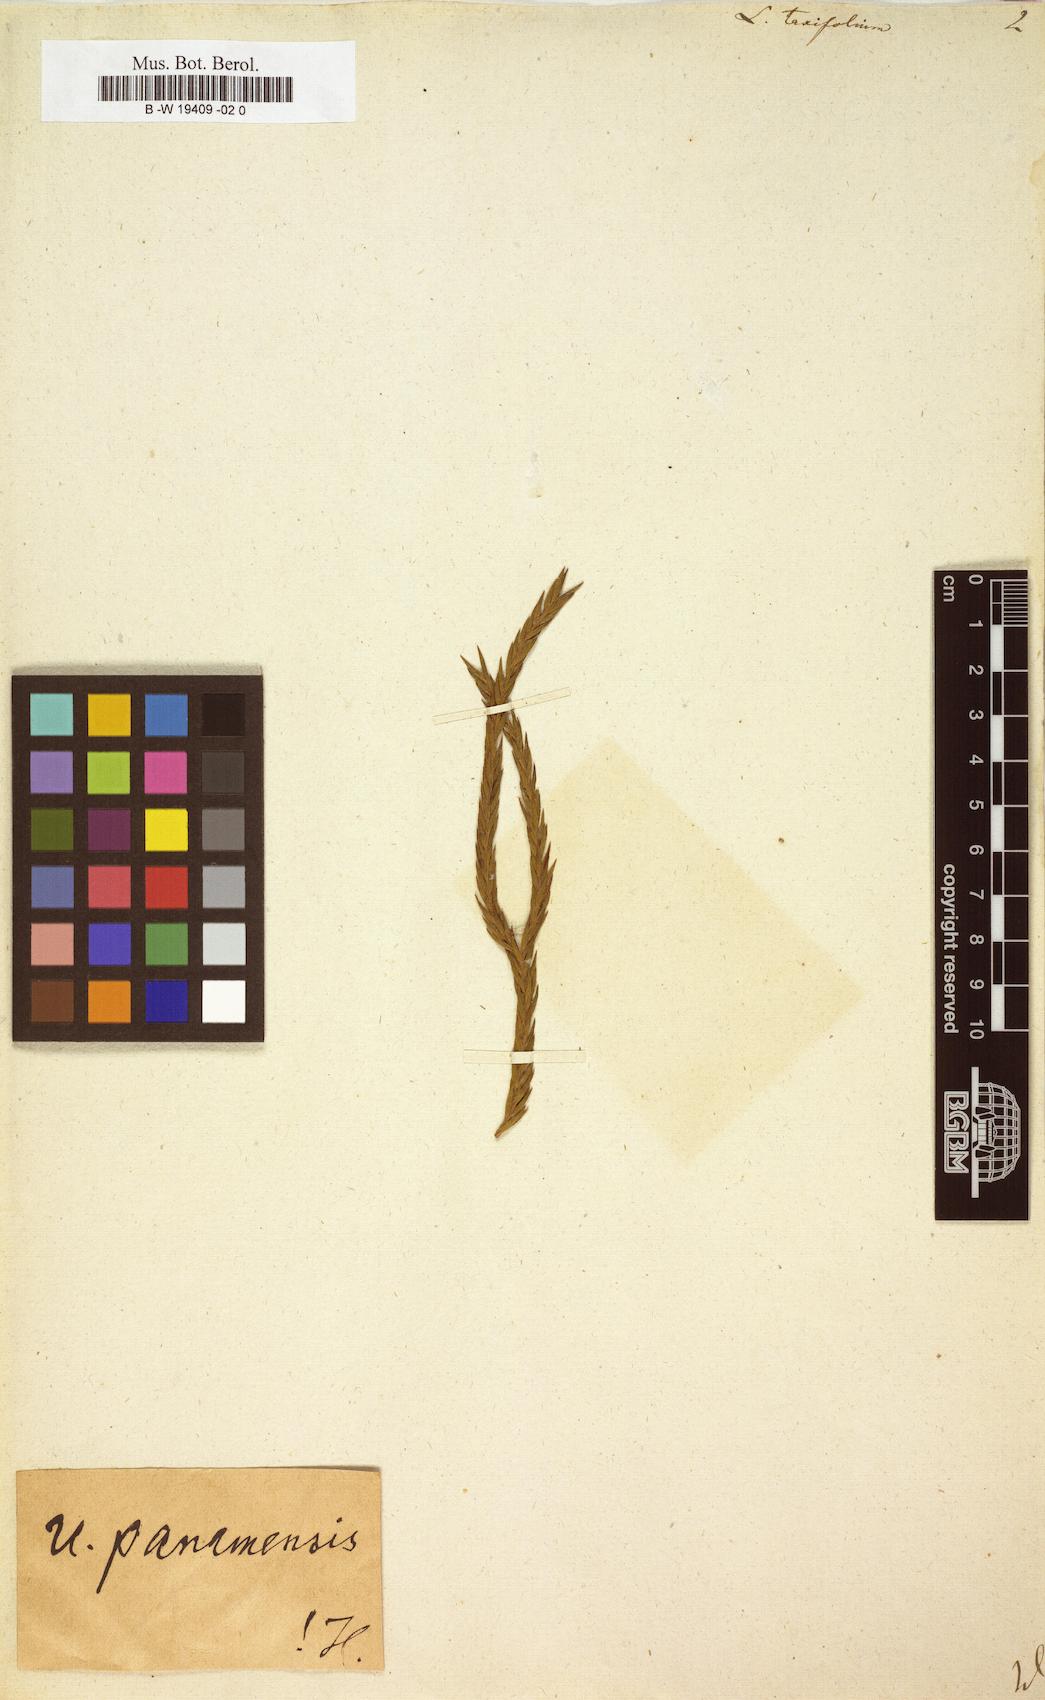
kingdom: Plantae
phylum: Tracheophyta
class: Lycopodiopsida
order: Lycopodiales
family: Lycopodiaceae
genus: Phlegmariurus
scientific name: Phlegmariurus taxifolius
